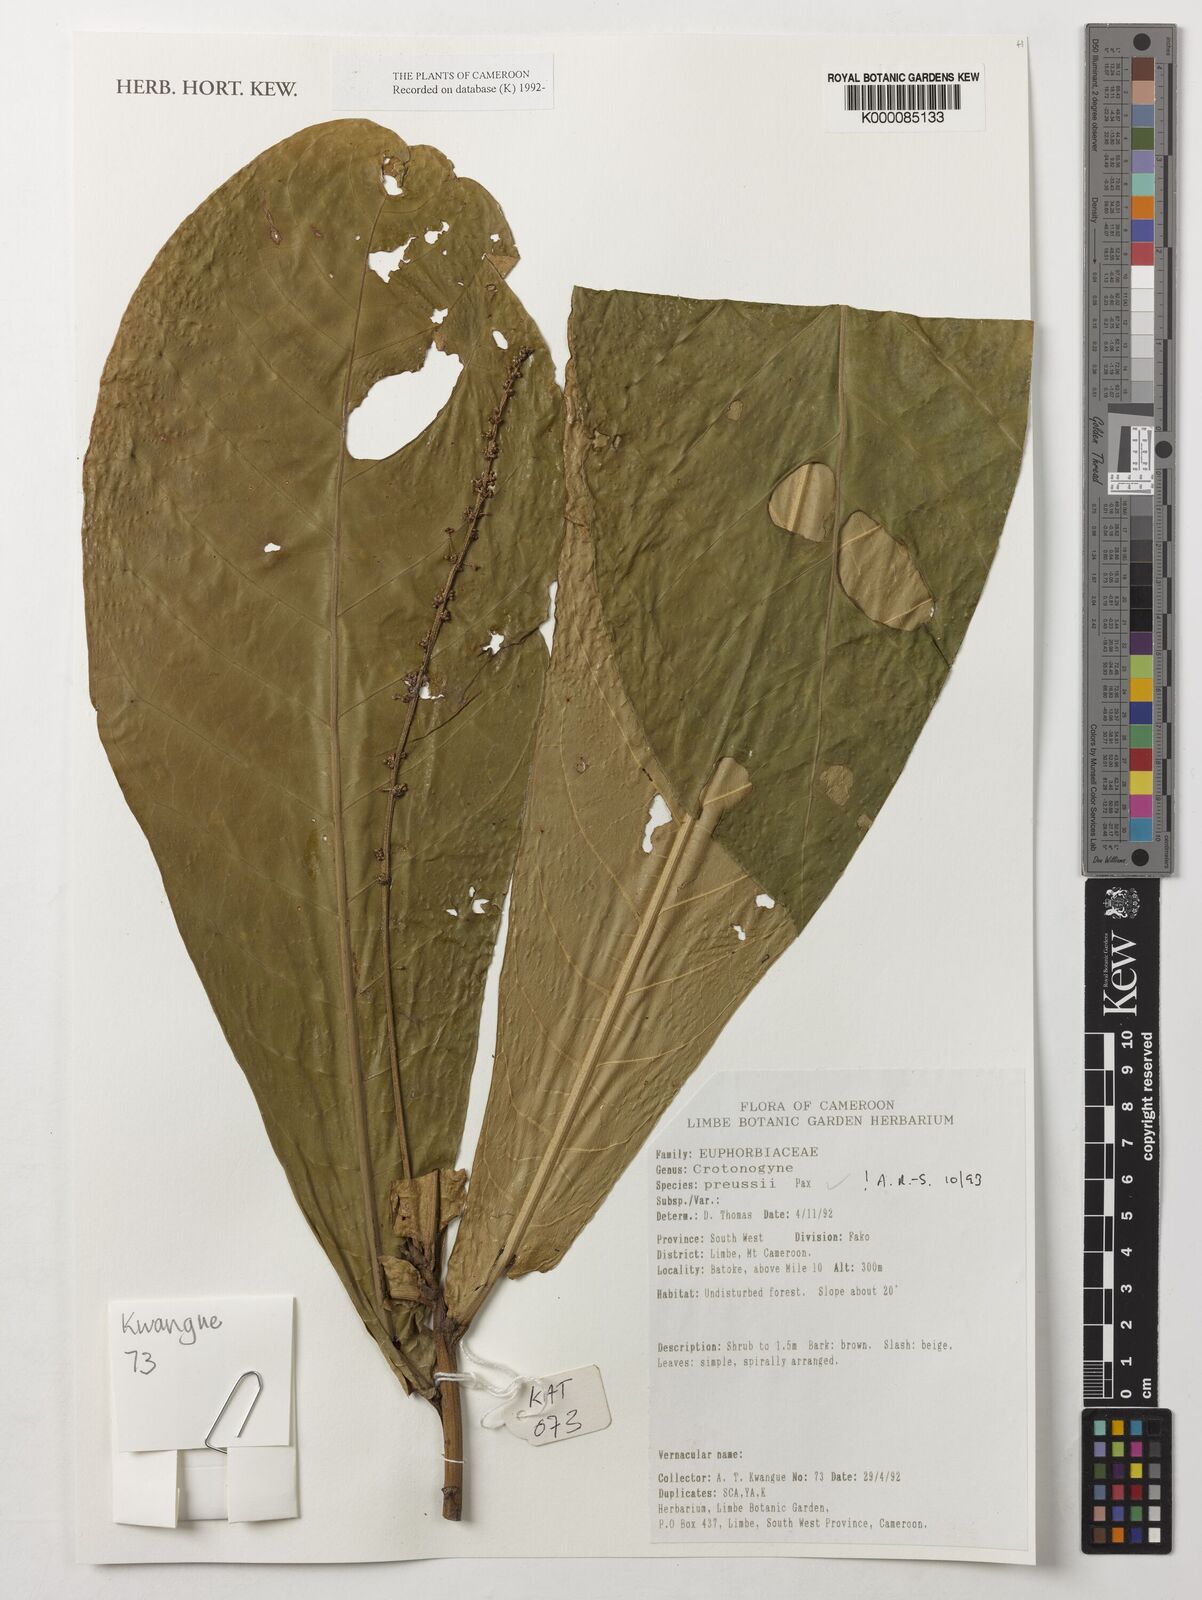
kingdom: Plantae
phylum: Tracheophyta
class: Magnoliopsida
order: Malpighiales
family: Euphorbiaceae
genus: Crotonogyne
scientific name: Crotonogyne preussii
